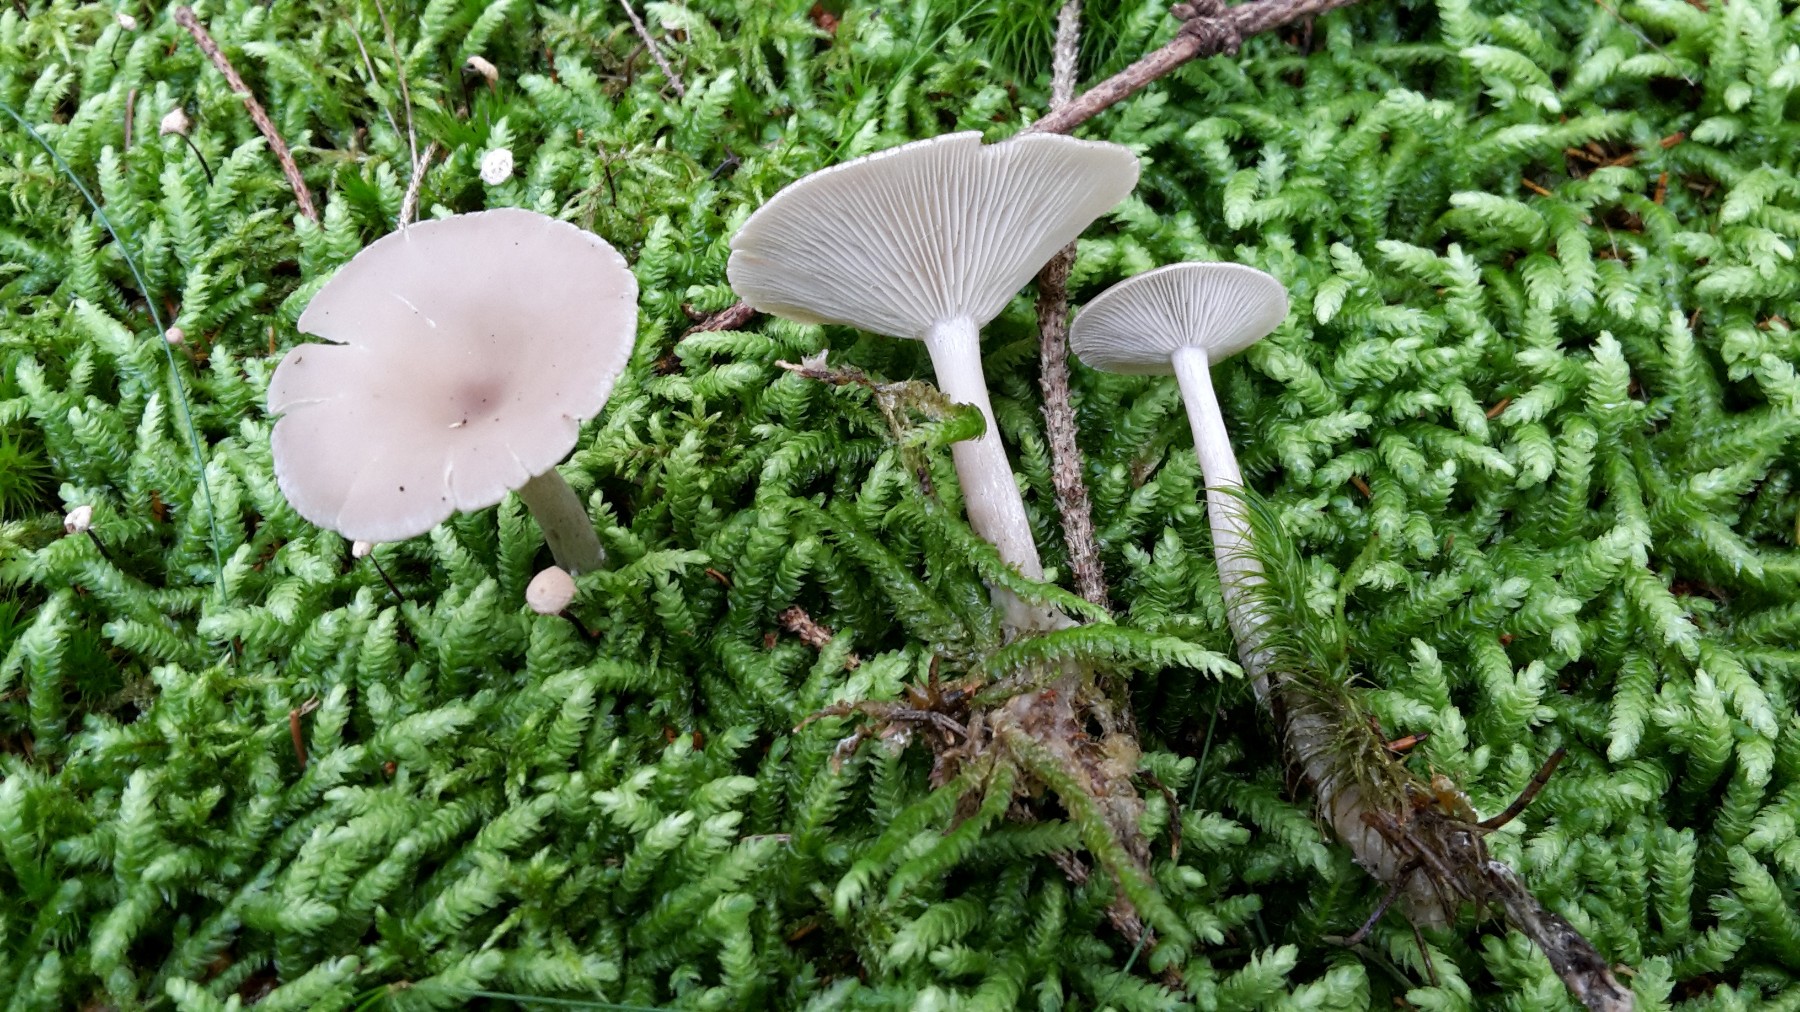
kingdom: Fungi
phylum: Basidiomycota
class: Agaricomycetes
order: Agaricales
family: Tricholomataceae
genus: Clitocybe
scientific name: Clitocybe
